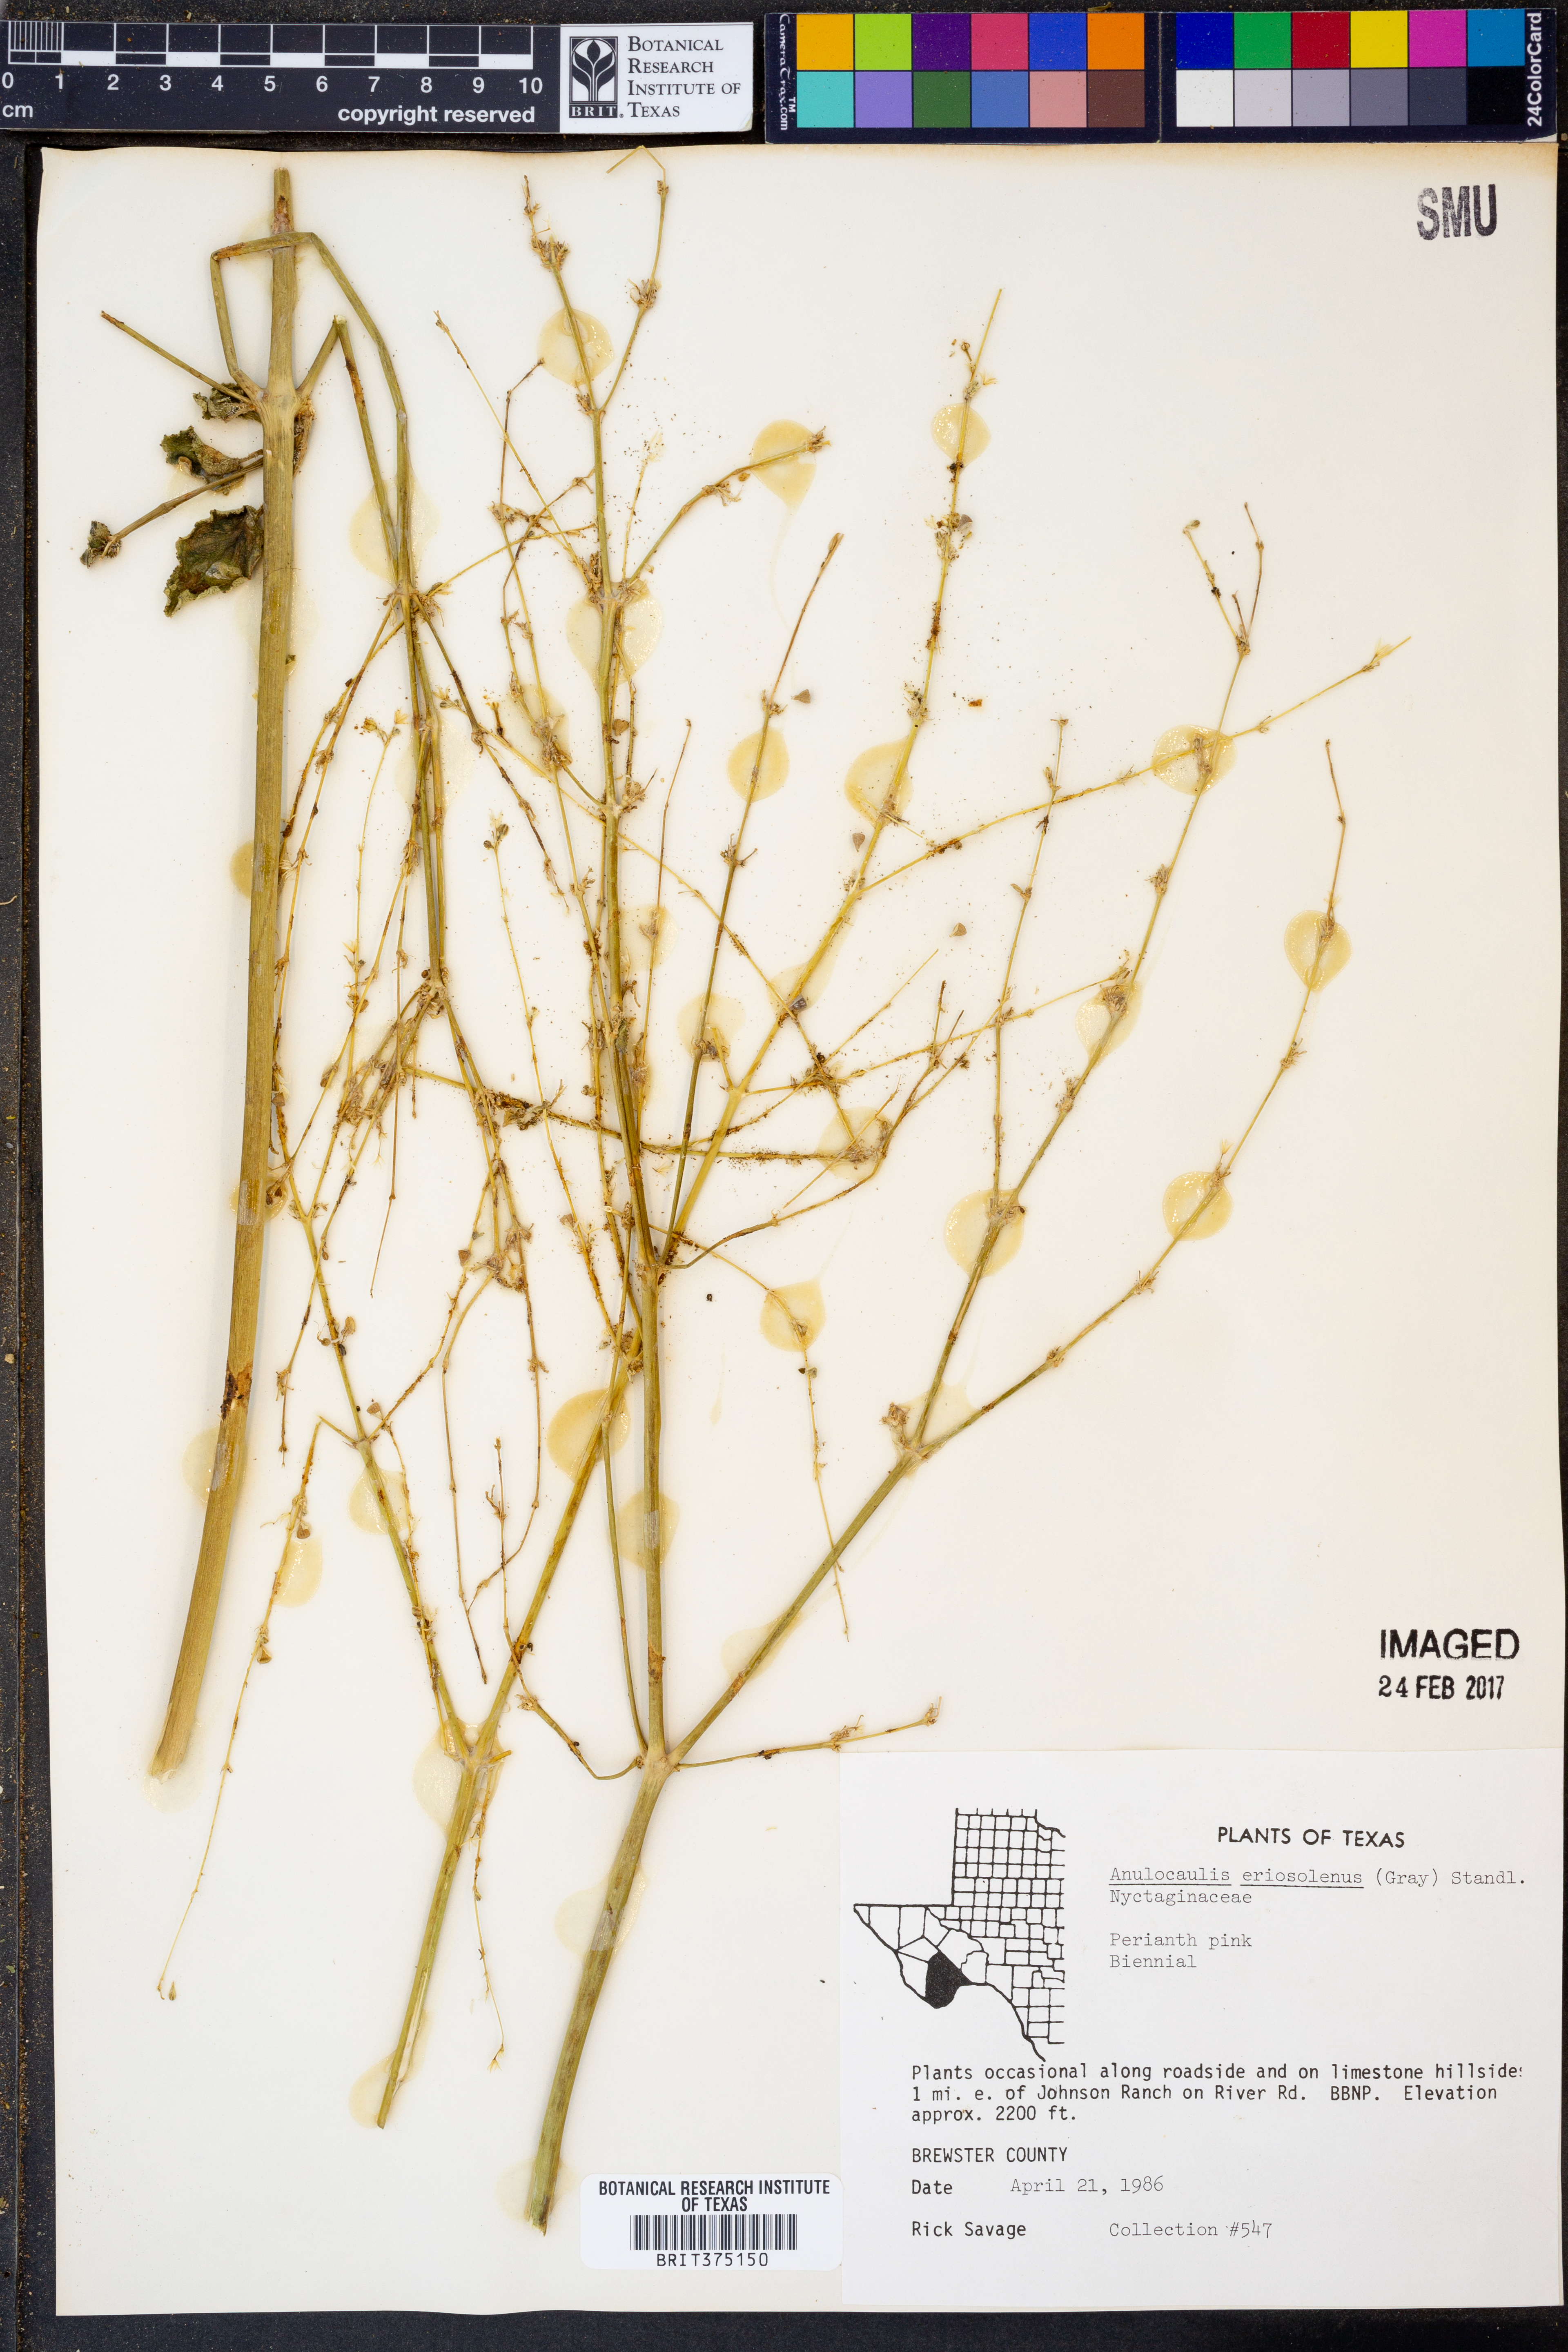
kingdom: Plantae
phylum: Tracheophyta
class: Magnoliopsida
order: Caryophyllales
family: Nyctaginaceae
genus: Anulocaulis
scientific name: Anulocaulis eriosolenus
